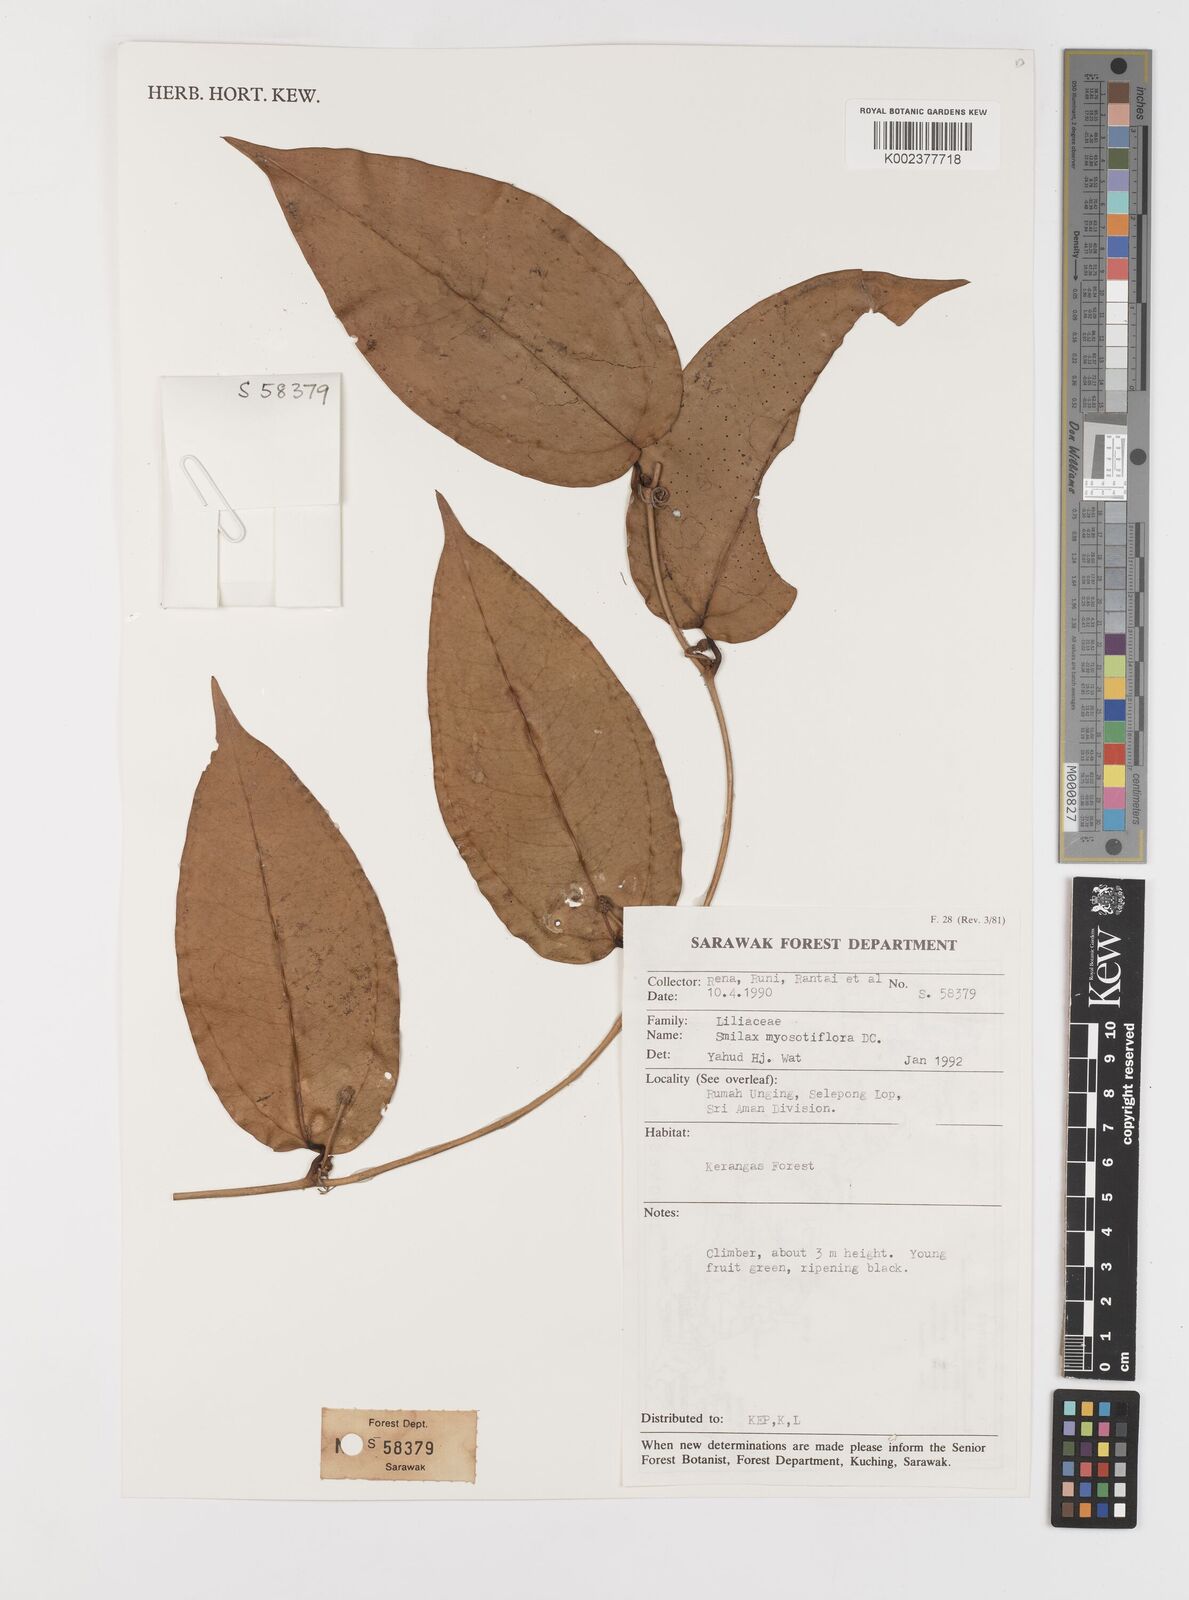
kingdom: Plantae
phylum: Tracheophyta
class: Liliopsida
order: Liliales
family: Smilacaceae
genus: Smilax
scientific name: Smilax myosotiflora
